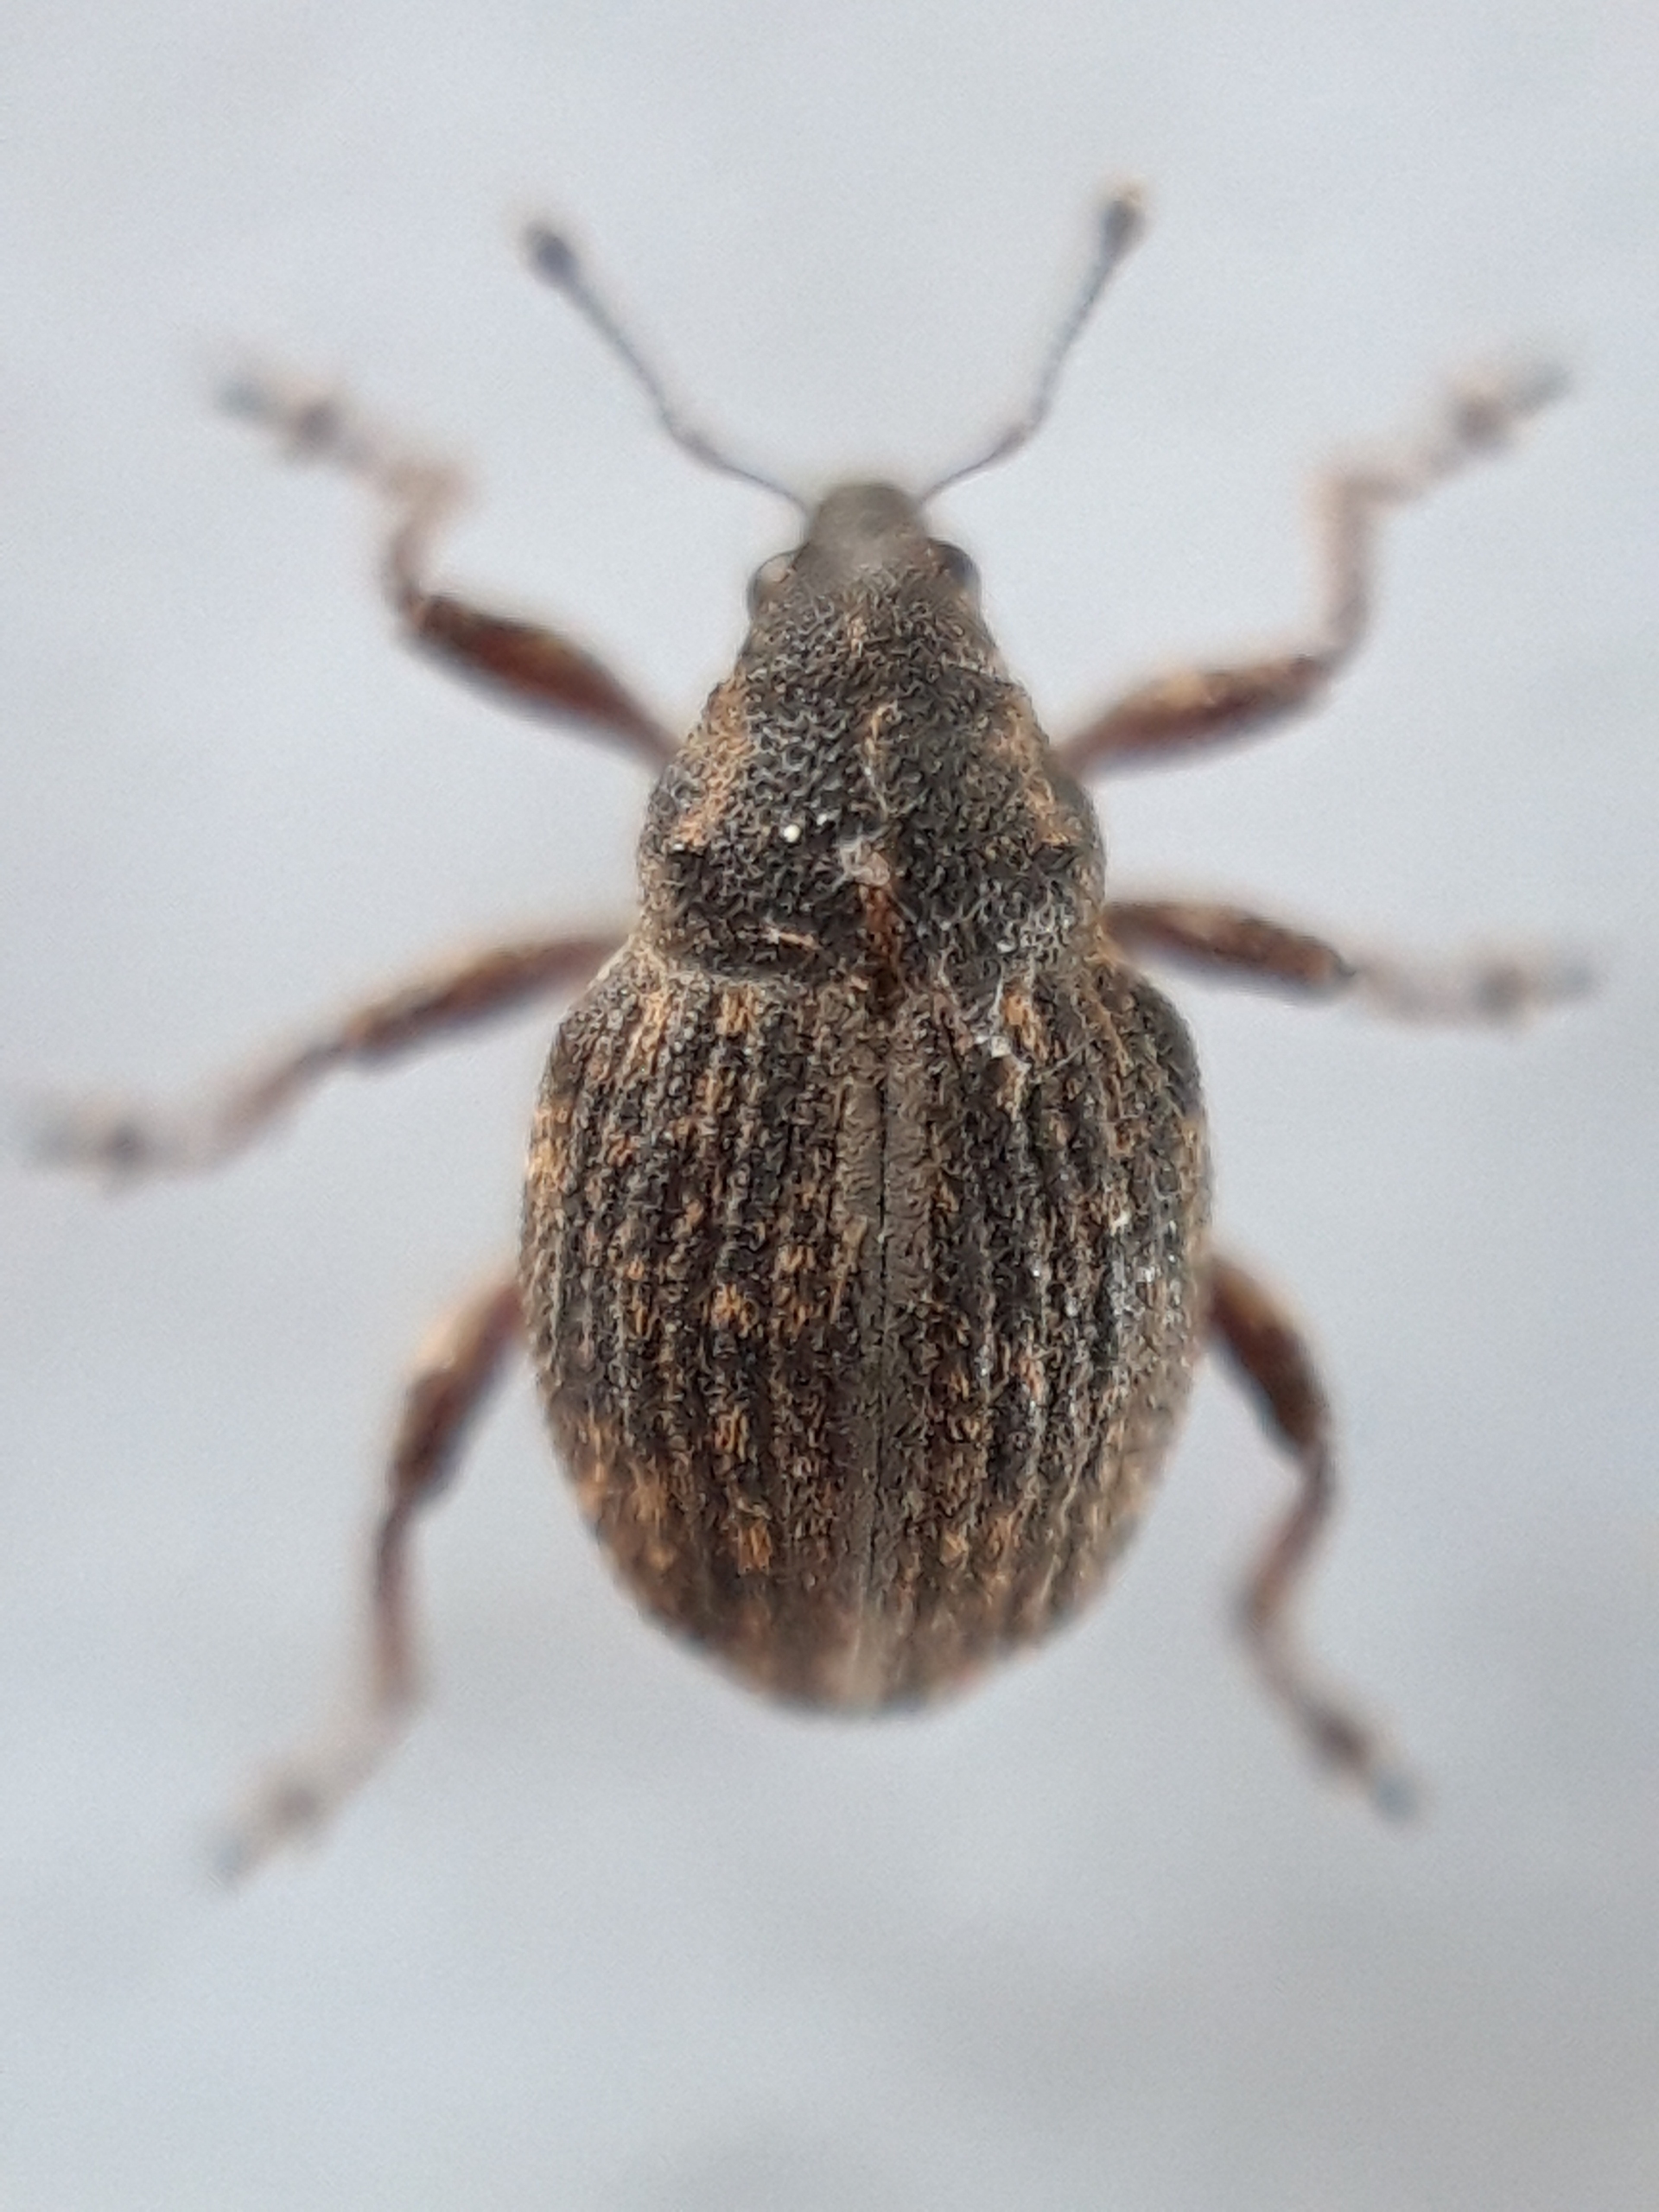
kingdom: Animalia
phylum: Arthropoda
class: Insecta
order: Coleoptera
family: Curculionidae
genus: Rhinoncus
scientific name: Rhinoncus inconspectus
